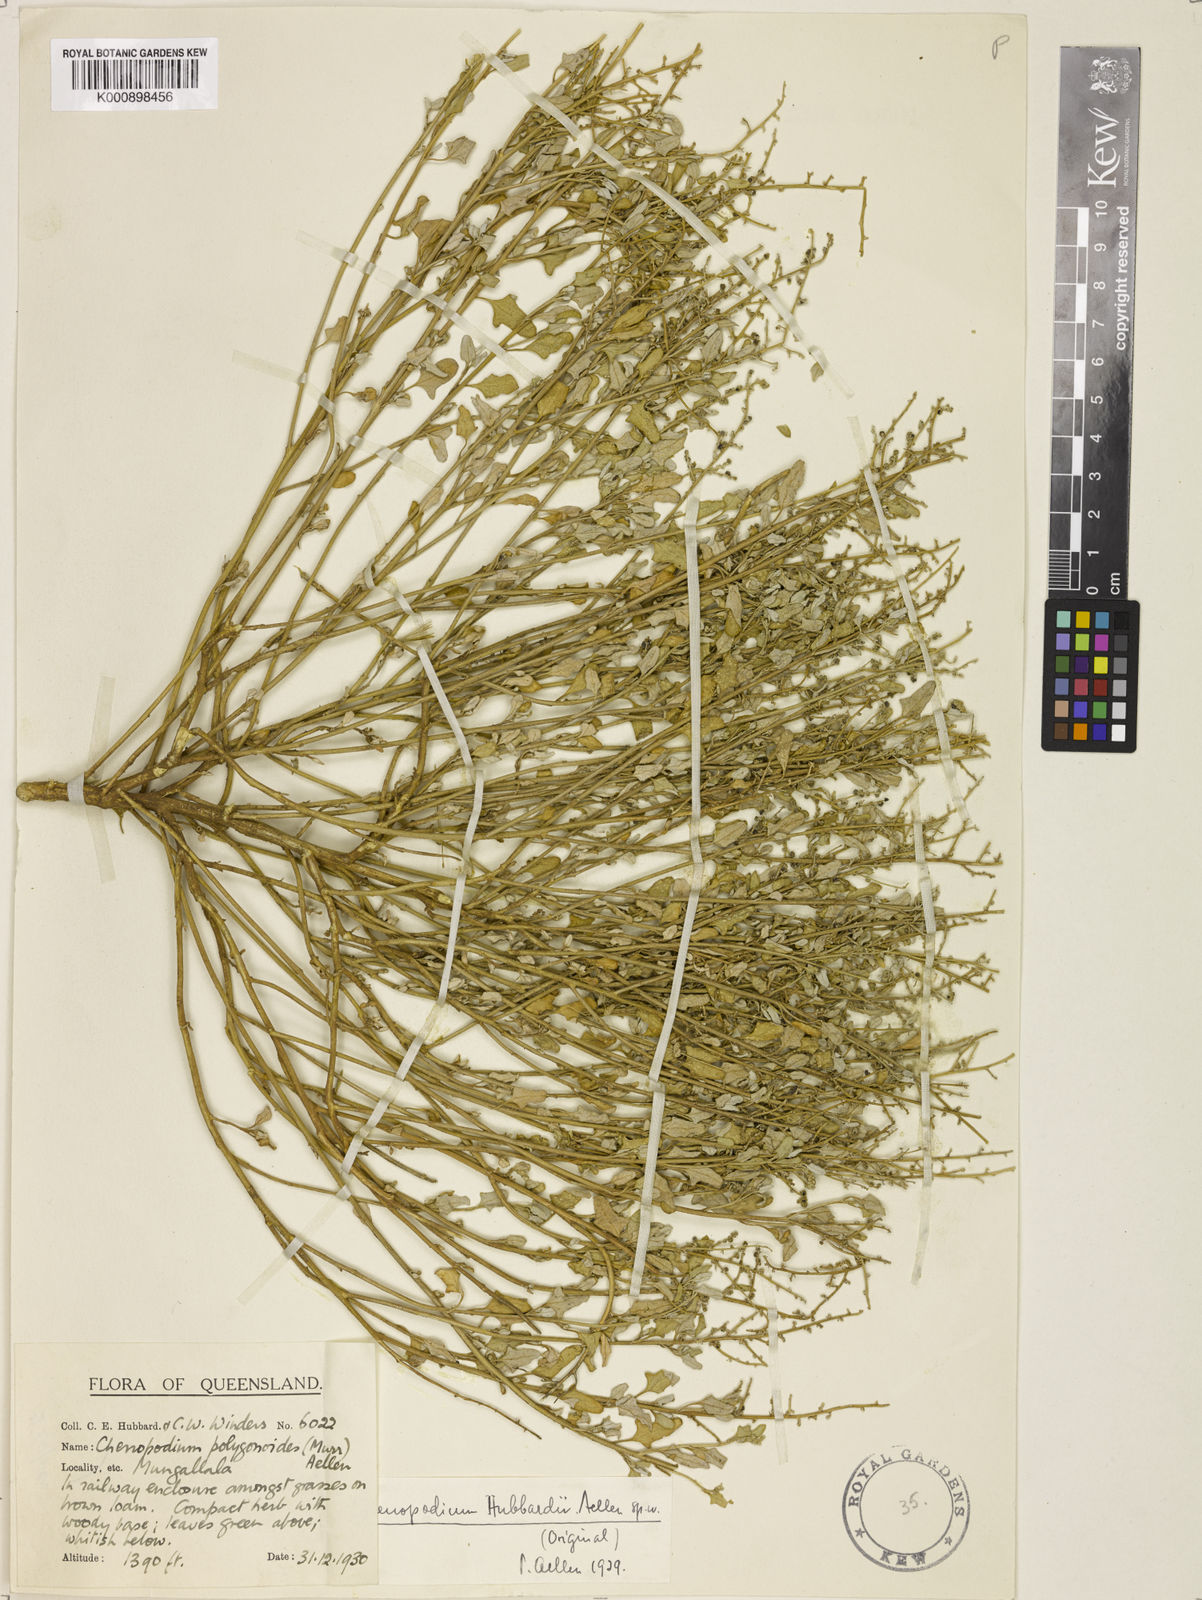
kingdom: Plantae
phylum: Tracheophyta
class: Magnoliopsida
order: Caryophyllales
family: Amaranthaceae
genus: Chenopodium
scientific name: Chenopodium hubbardii
